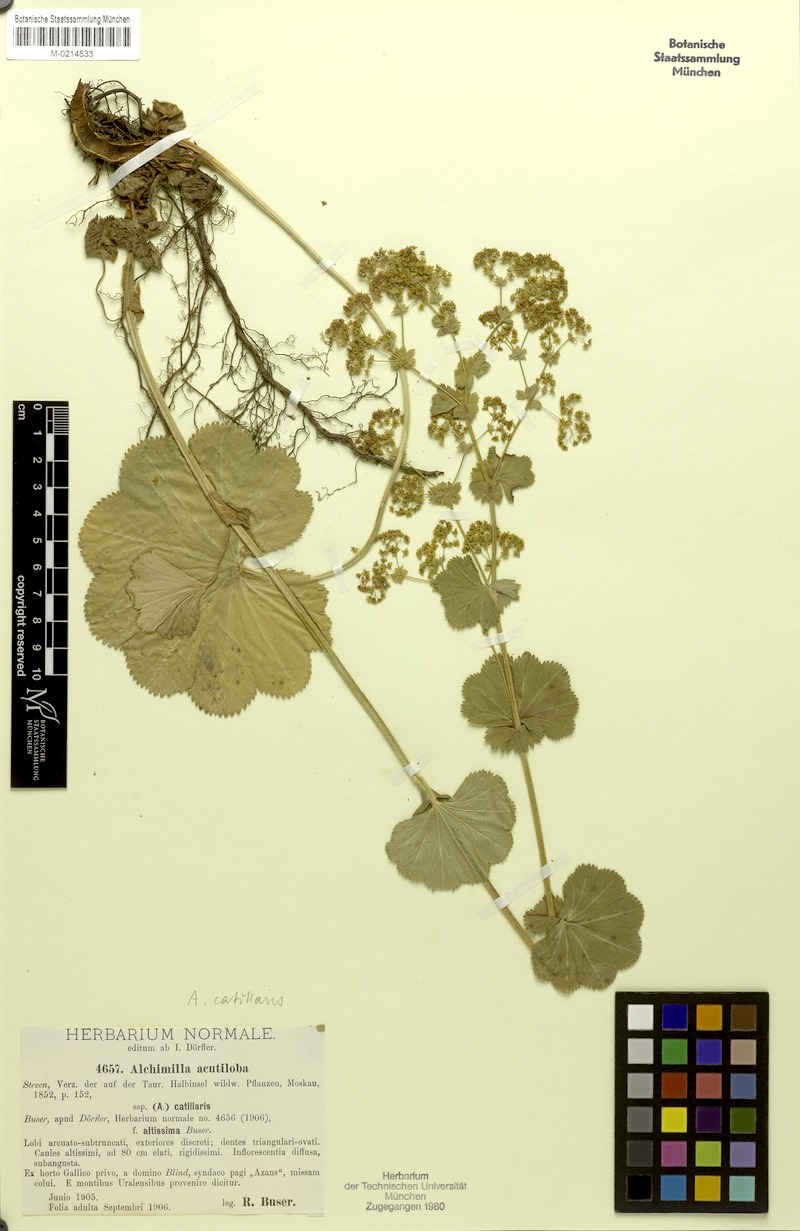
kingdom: Plantae
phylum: Tracheophyta
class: Magnoliopsida
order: Rosales
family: Rosaceae
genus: Alchemilla
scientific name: Alchemilla mollis
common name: Lady's-mantle
